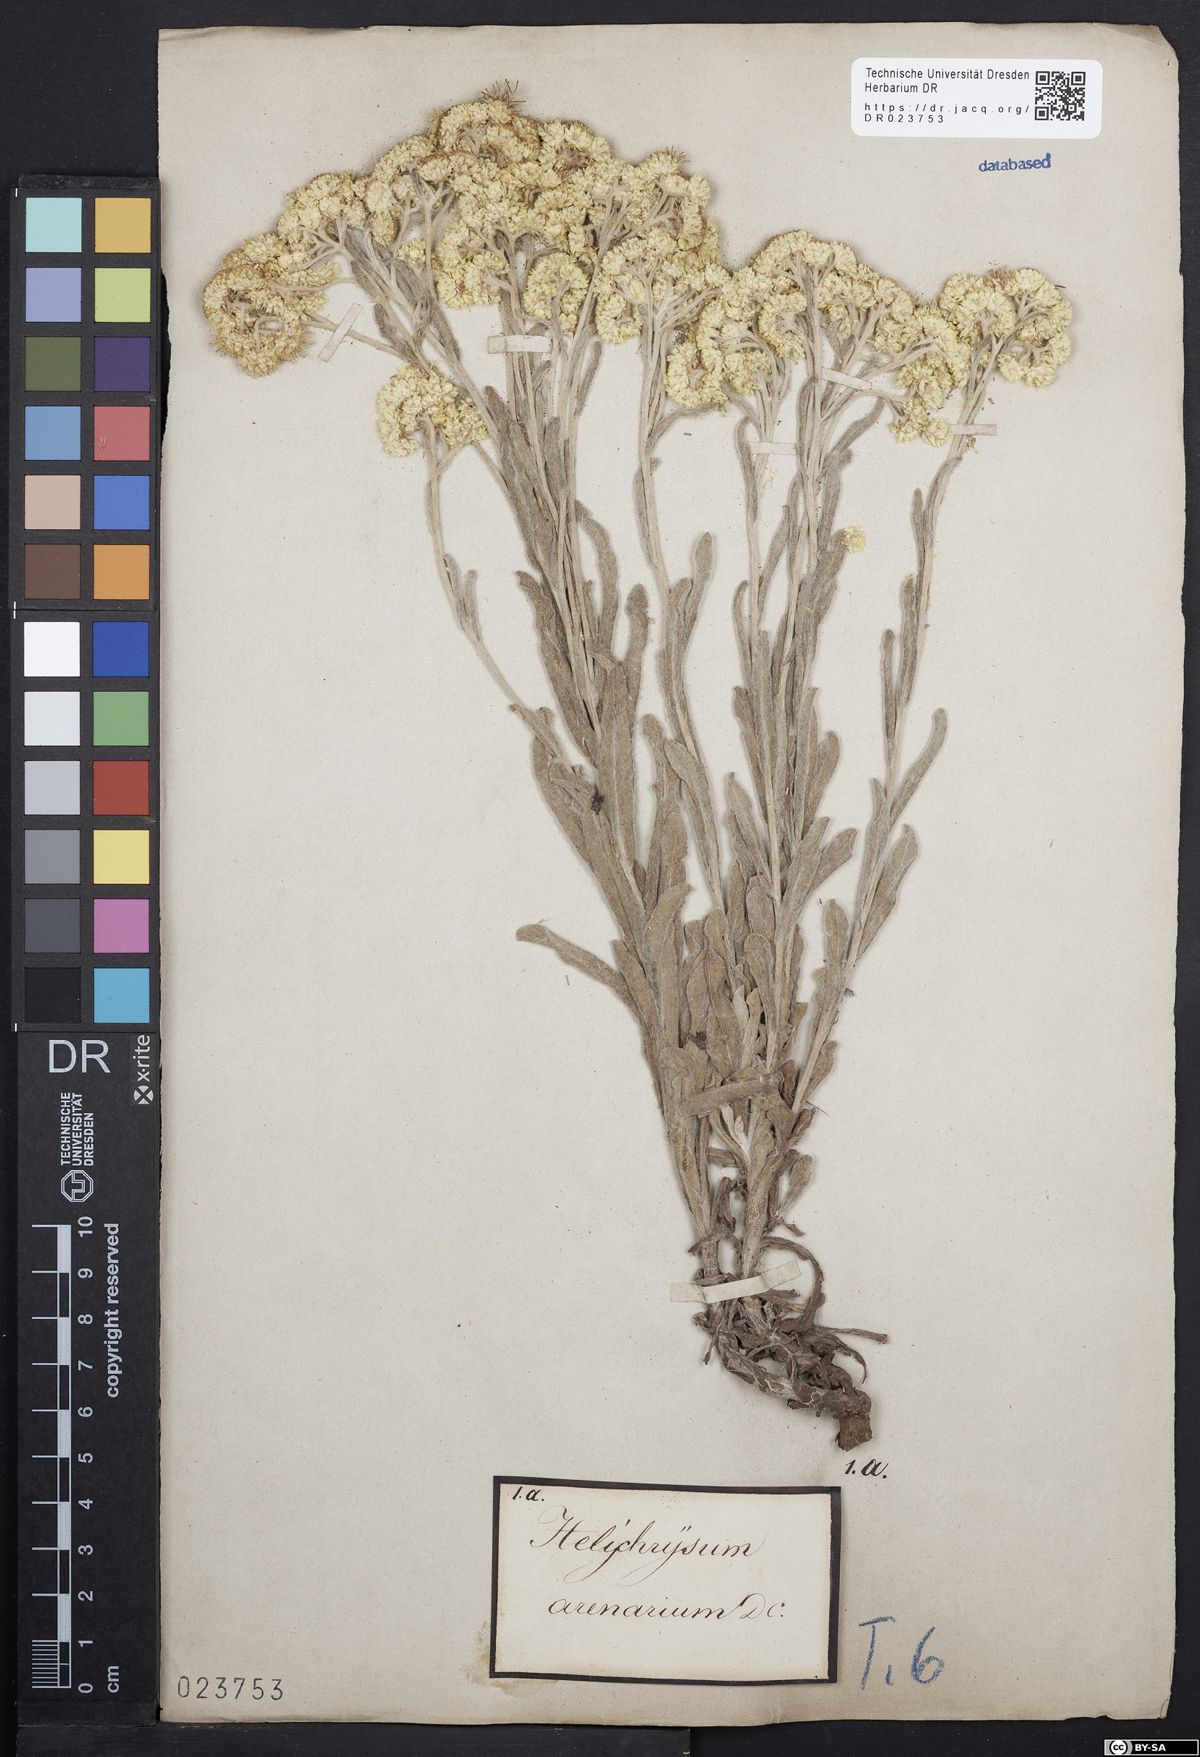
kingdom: Plantae
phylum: Tracheophyta
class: Magnoliopsida
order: Asterales
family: Asteraceae
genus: Helichrysum
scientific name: Helichrysum arenarium
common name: Strawflower
